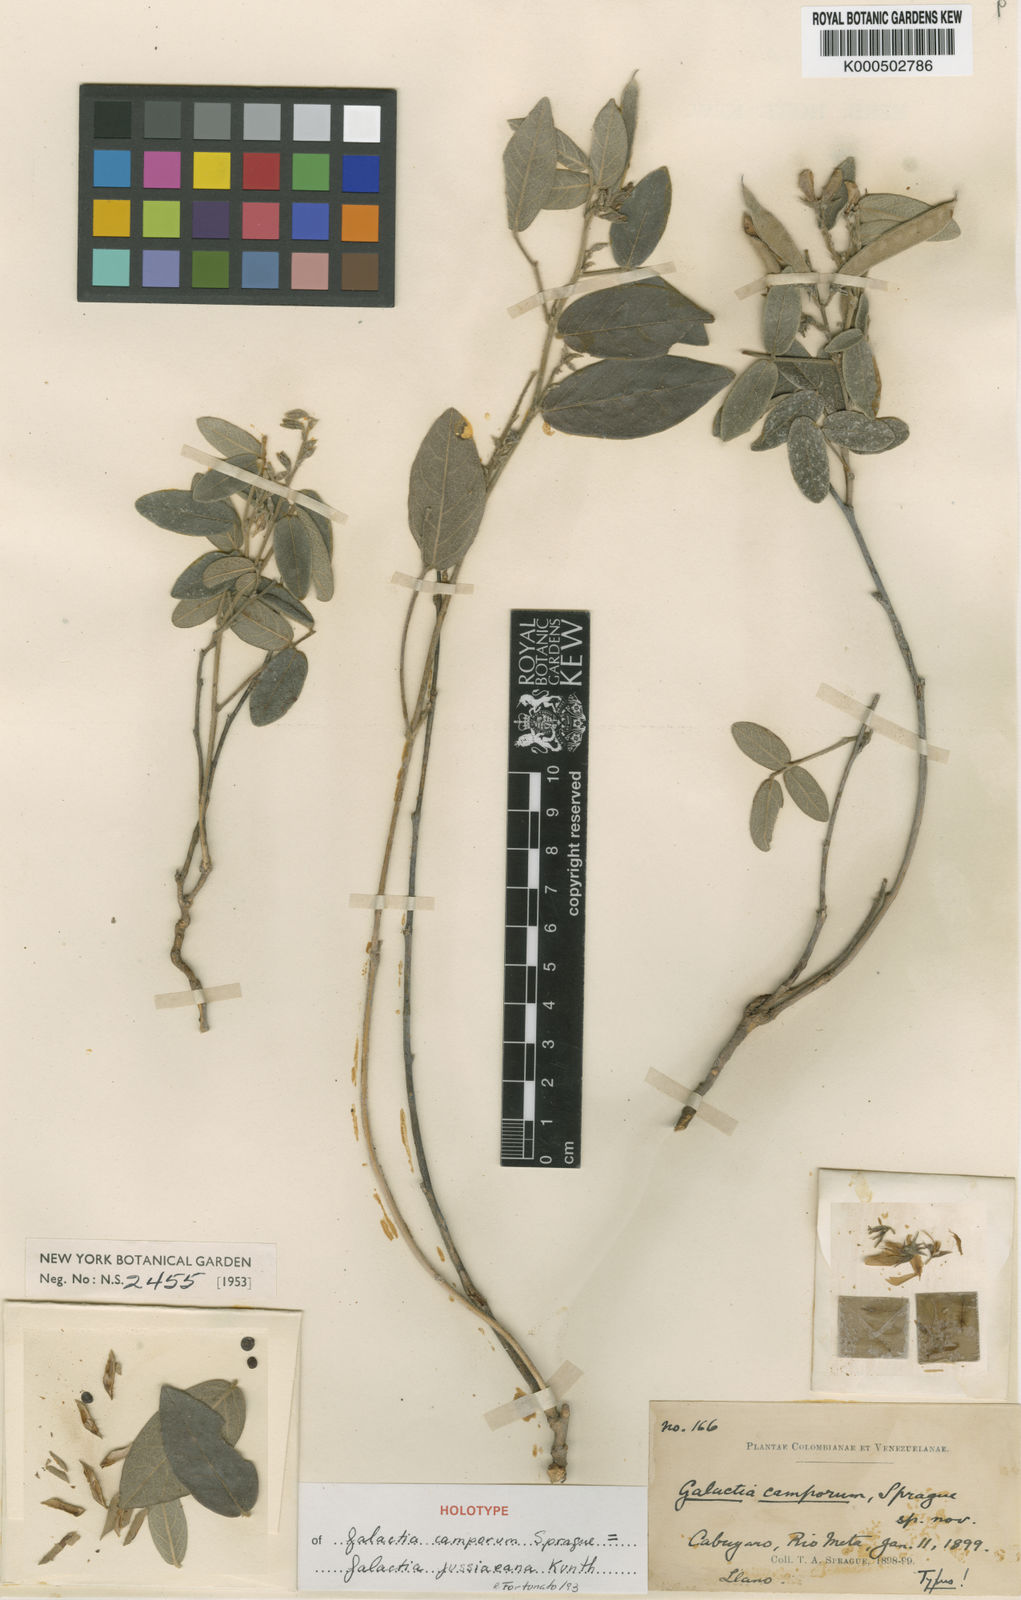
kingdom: Plantae
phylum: Tracheophyta
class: Magnoliopsida
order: Fabales
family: Fabaceae
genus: Galactia
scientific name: Galactia jussiaeana
